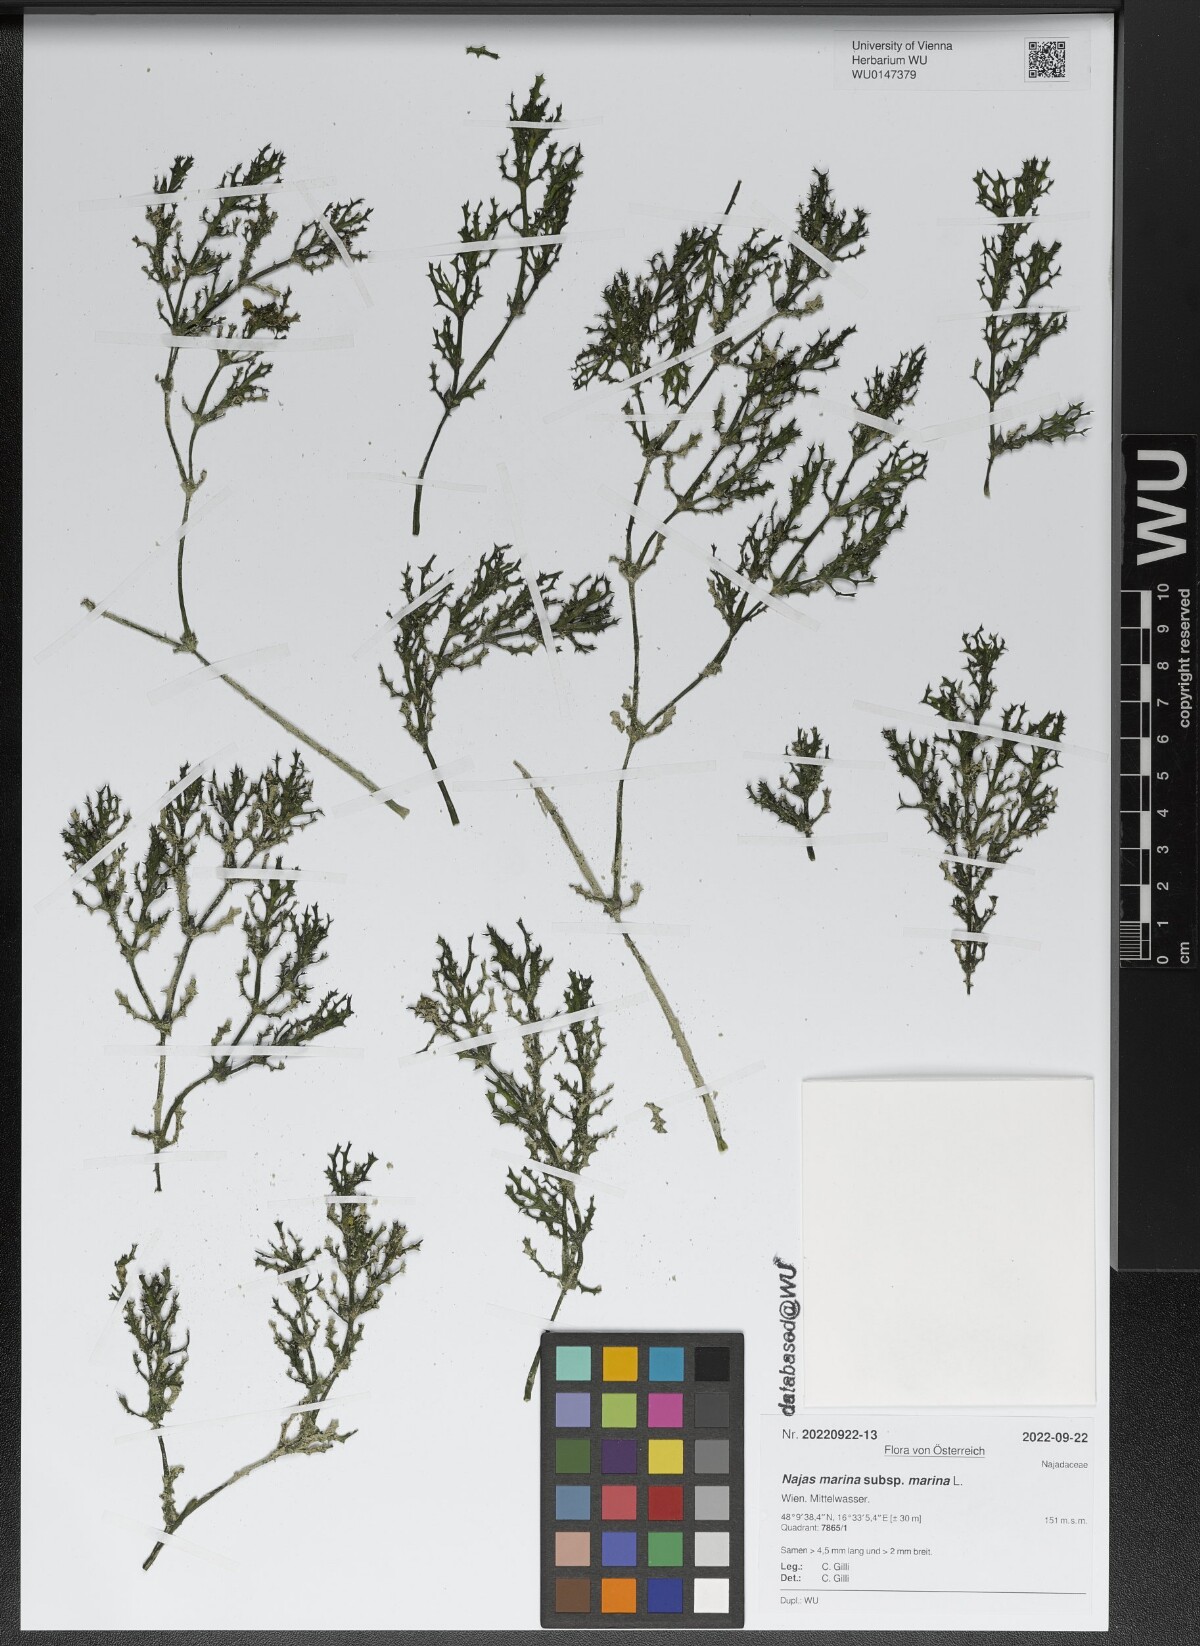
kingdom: Plantae
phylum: Tracheophyta
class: Liliopsida
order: Alismatales
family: Hydrocharitaceae
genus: Najas
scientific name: Najas marina
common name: Holly-leaved naiad
